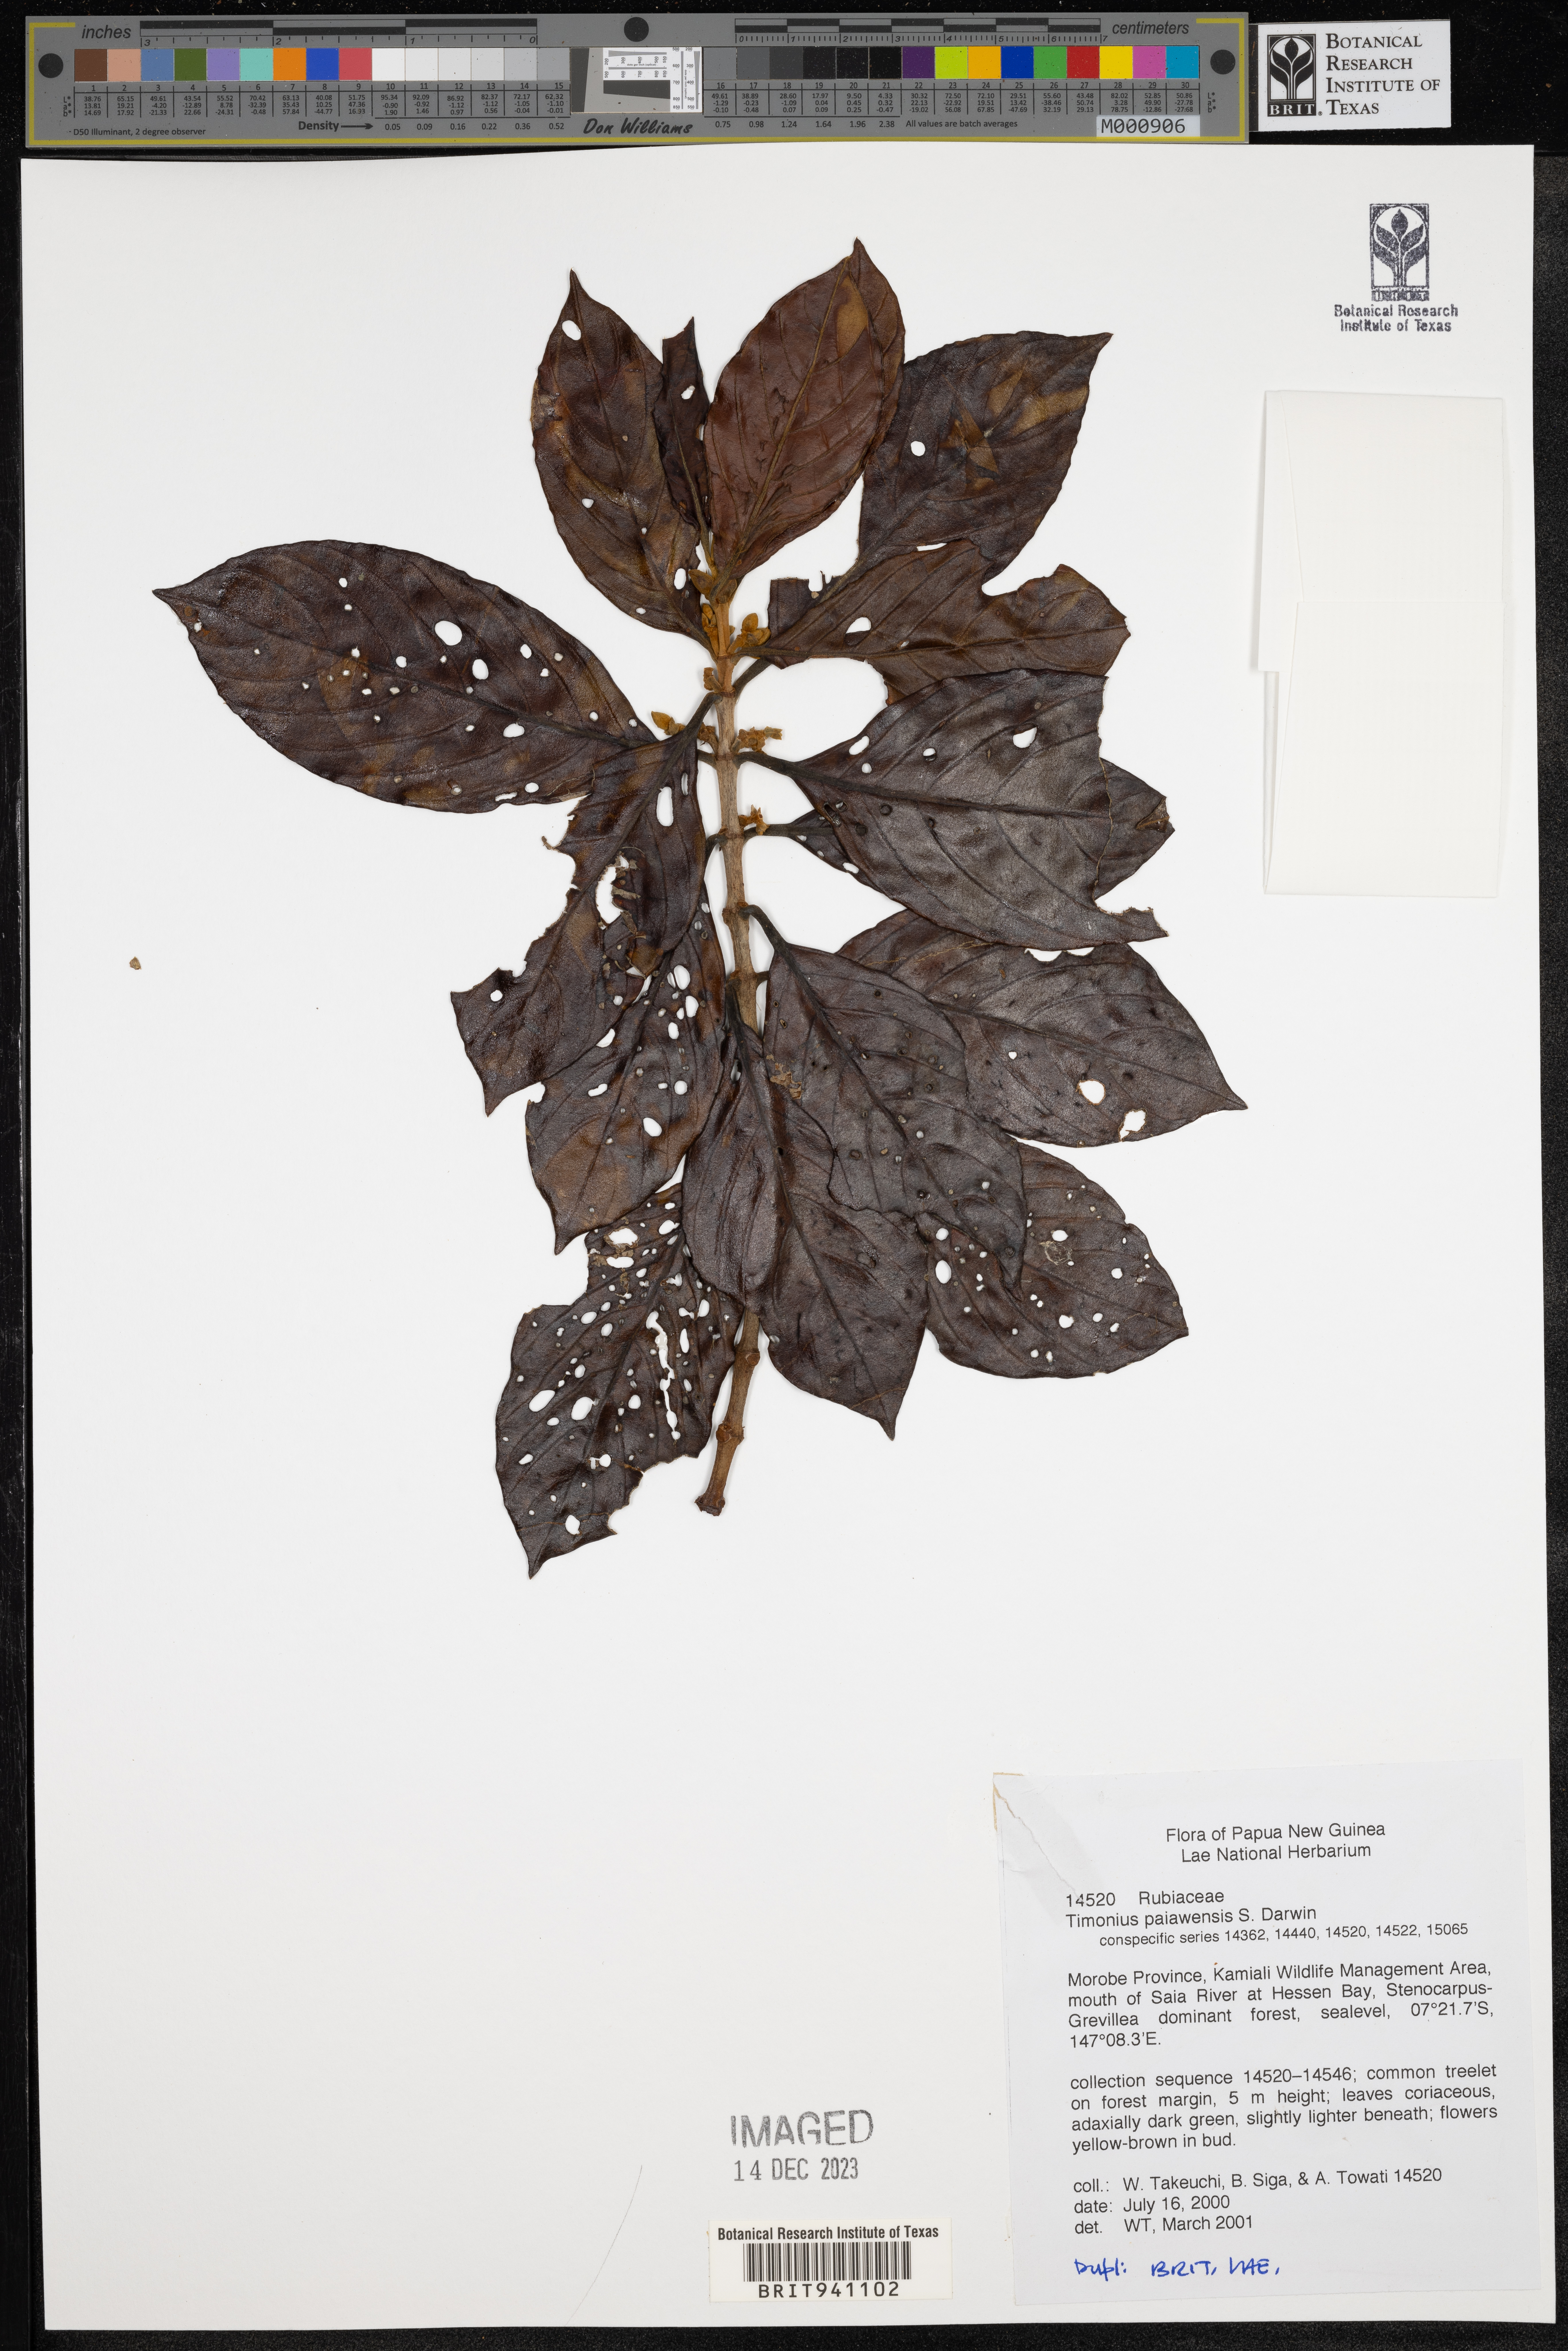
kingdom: Plantae
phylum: Tracheophyta
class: Magnoliopsida
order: Gentianales
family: Rubiaceae
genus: Timonius
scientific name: Timonius
